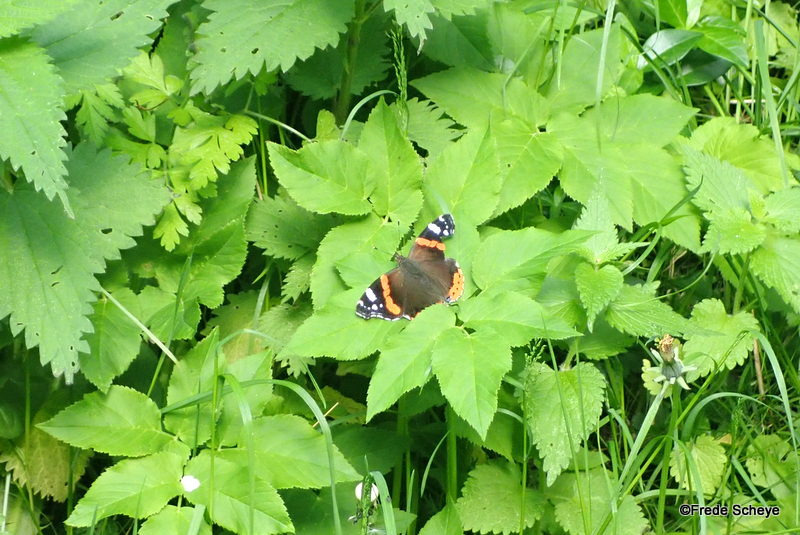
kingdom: Animalia
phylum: Arthropoda
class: Insecta
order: Lepidoptera
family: Nymphalidae
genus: Vanessa
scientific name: Vanessa atalanta
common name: Admiral
